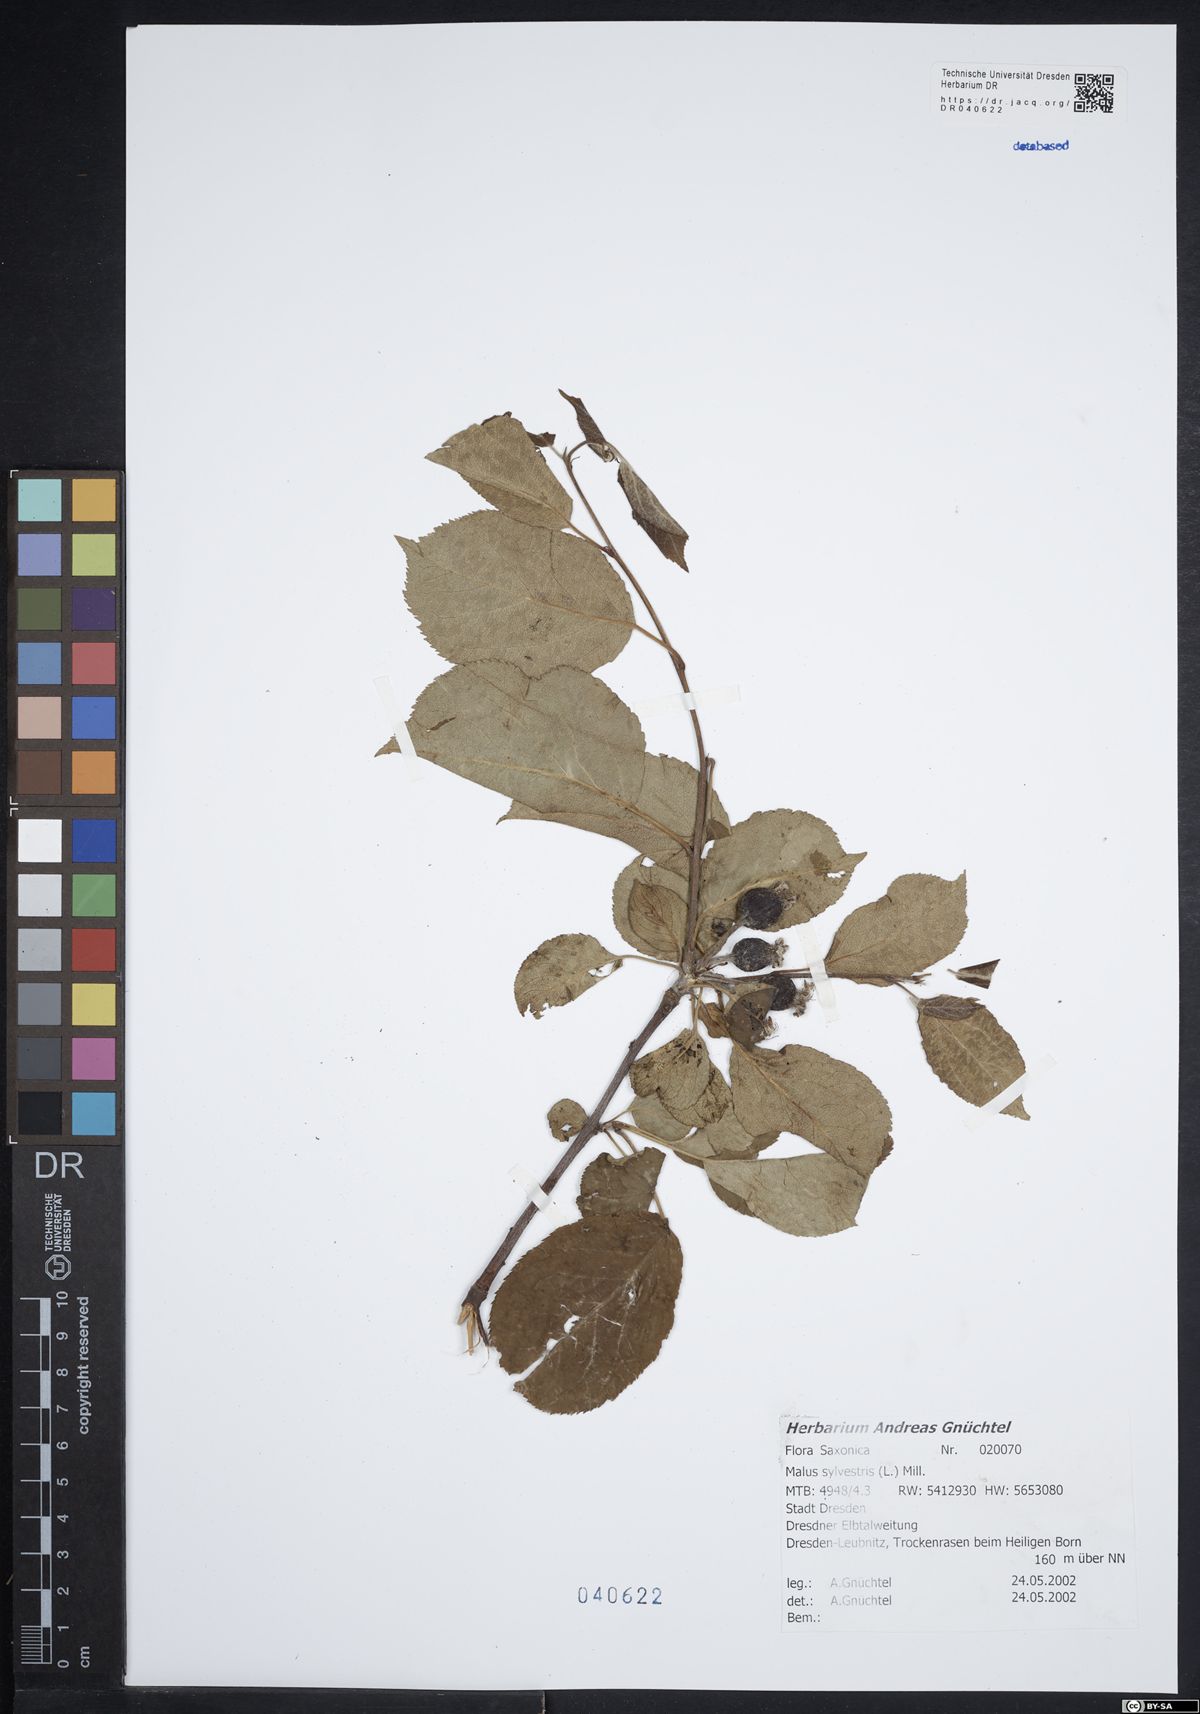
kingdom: Plantae
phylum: Tracheophyta
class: Magnoliopsida
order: Rosales
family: Rosaceae
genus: Malus
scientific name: Malus sylvestris
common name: Crab apple
